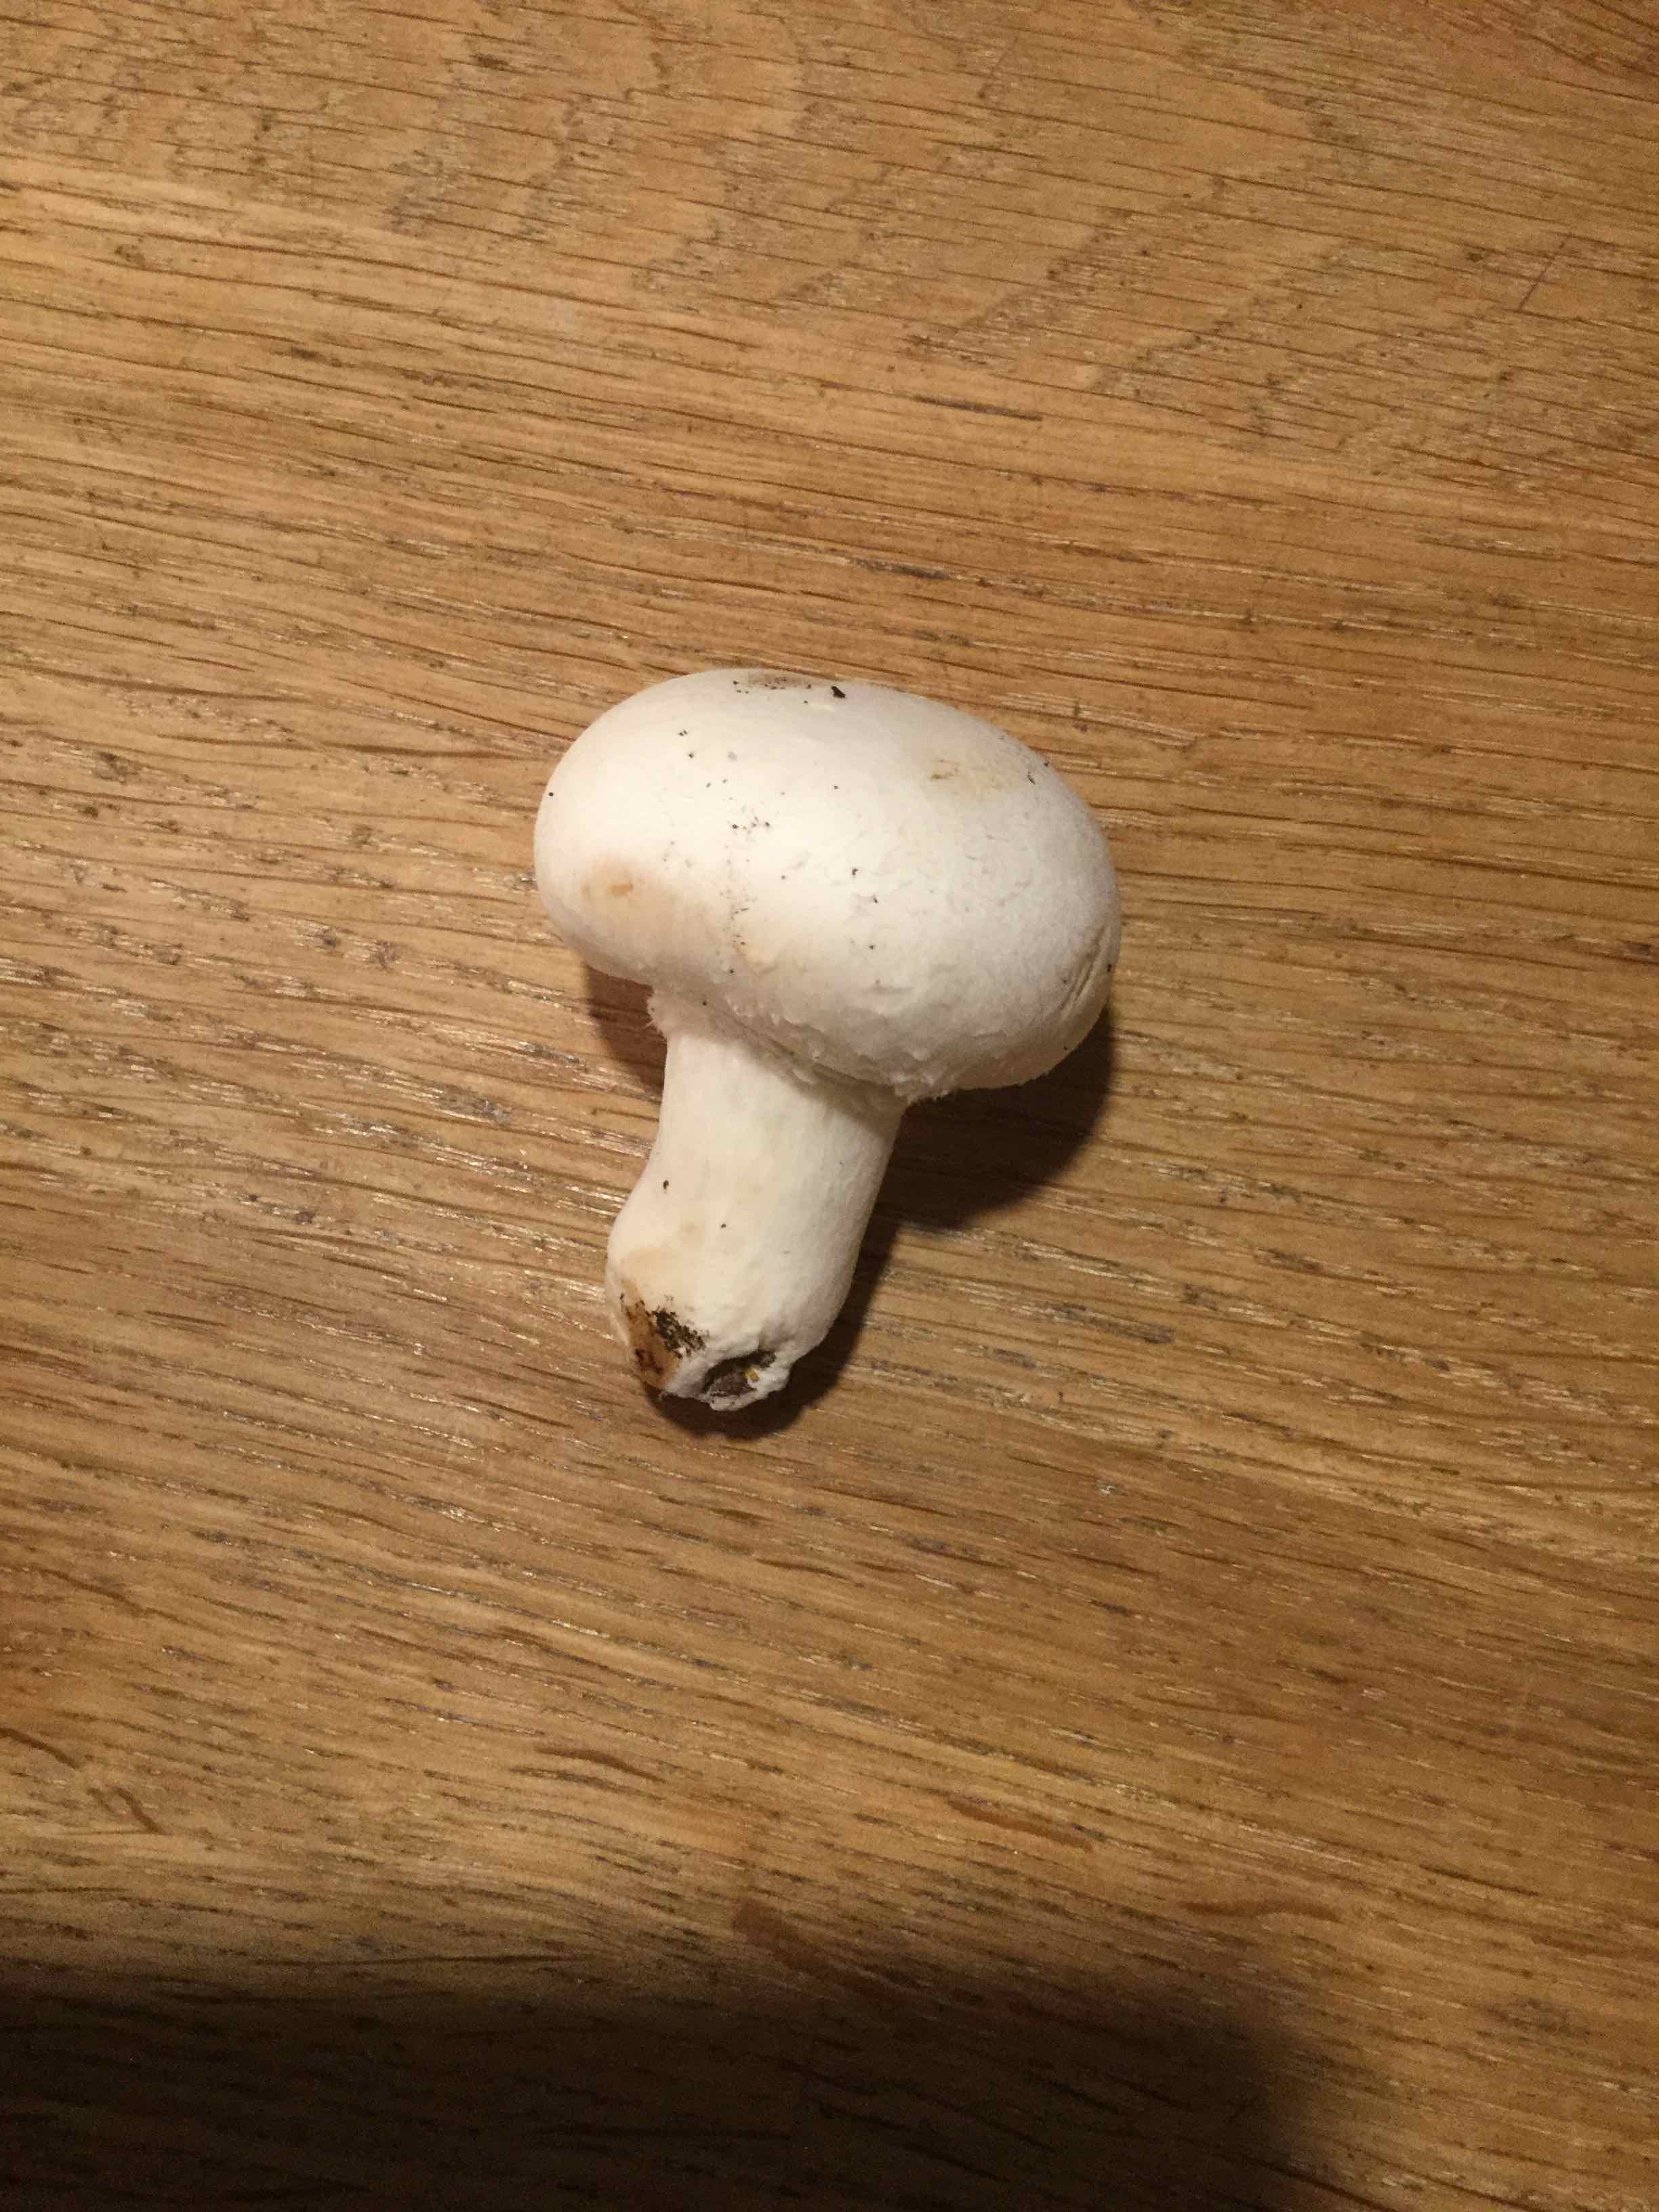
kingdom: Fungi
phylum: Basidiomycota
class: Agaricomycetes
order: Agaricales
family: Agaricaceae
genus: Agaricus
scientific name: Agaricus
